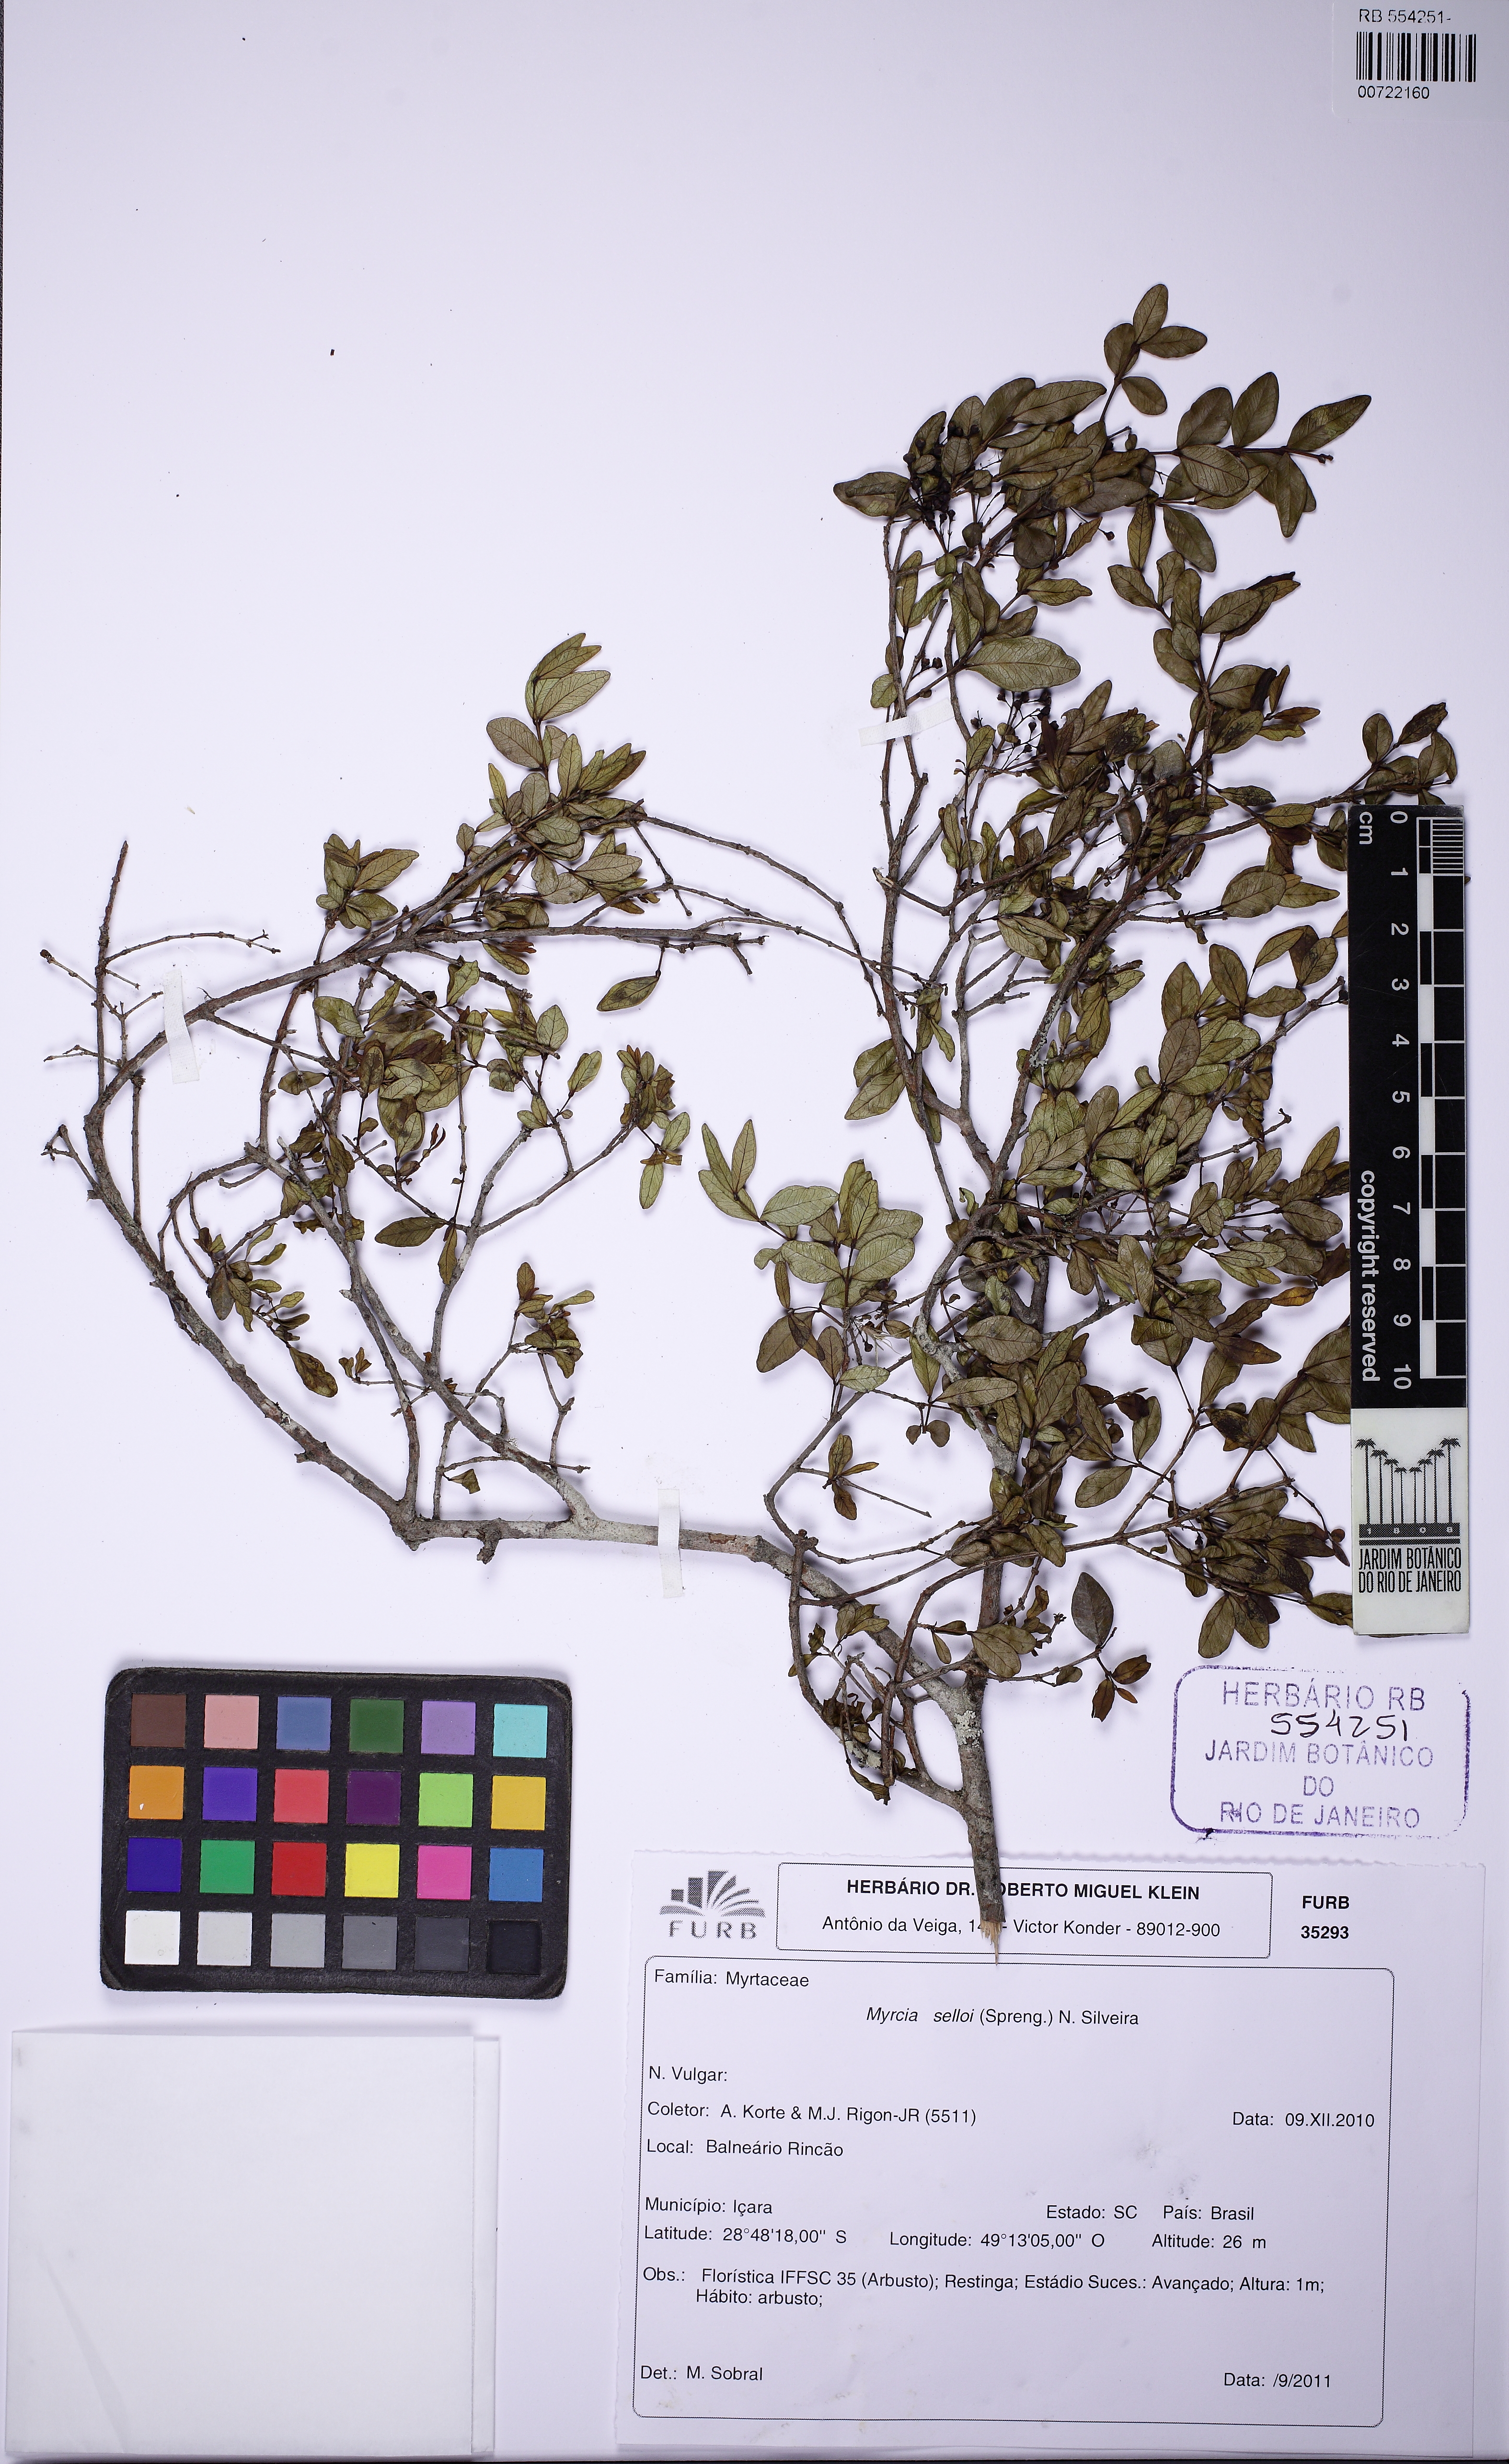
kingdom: Plantae
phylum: Tracheophyta
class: Magnoliopsida
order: Myrtales
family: Myrtaceae
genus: Myrcia
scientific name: Myrcia selloi
